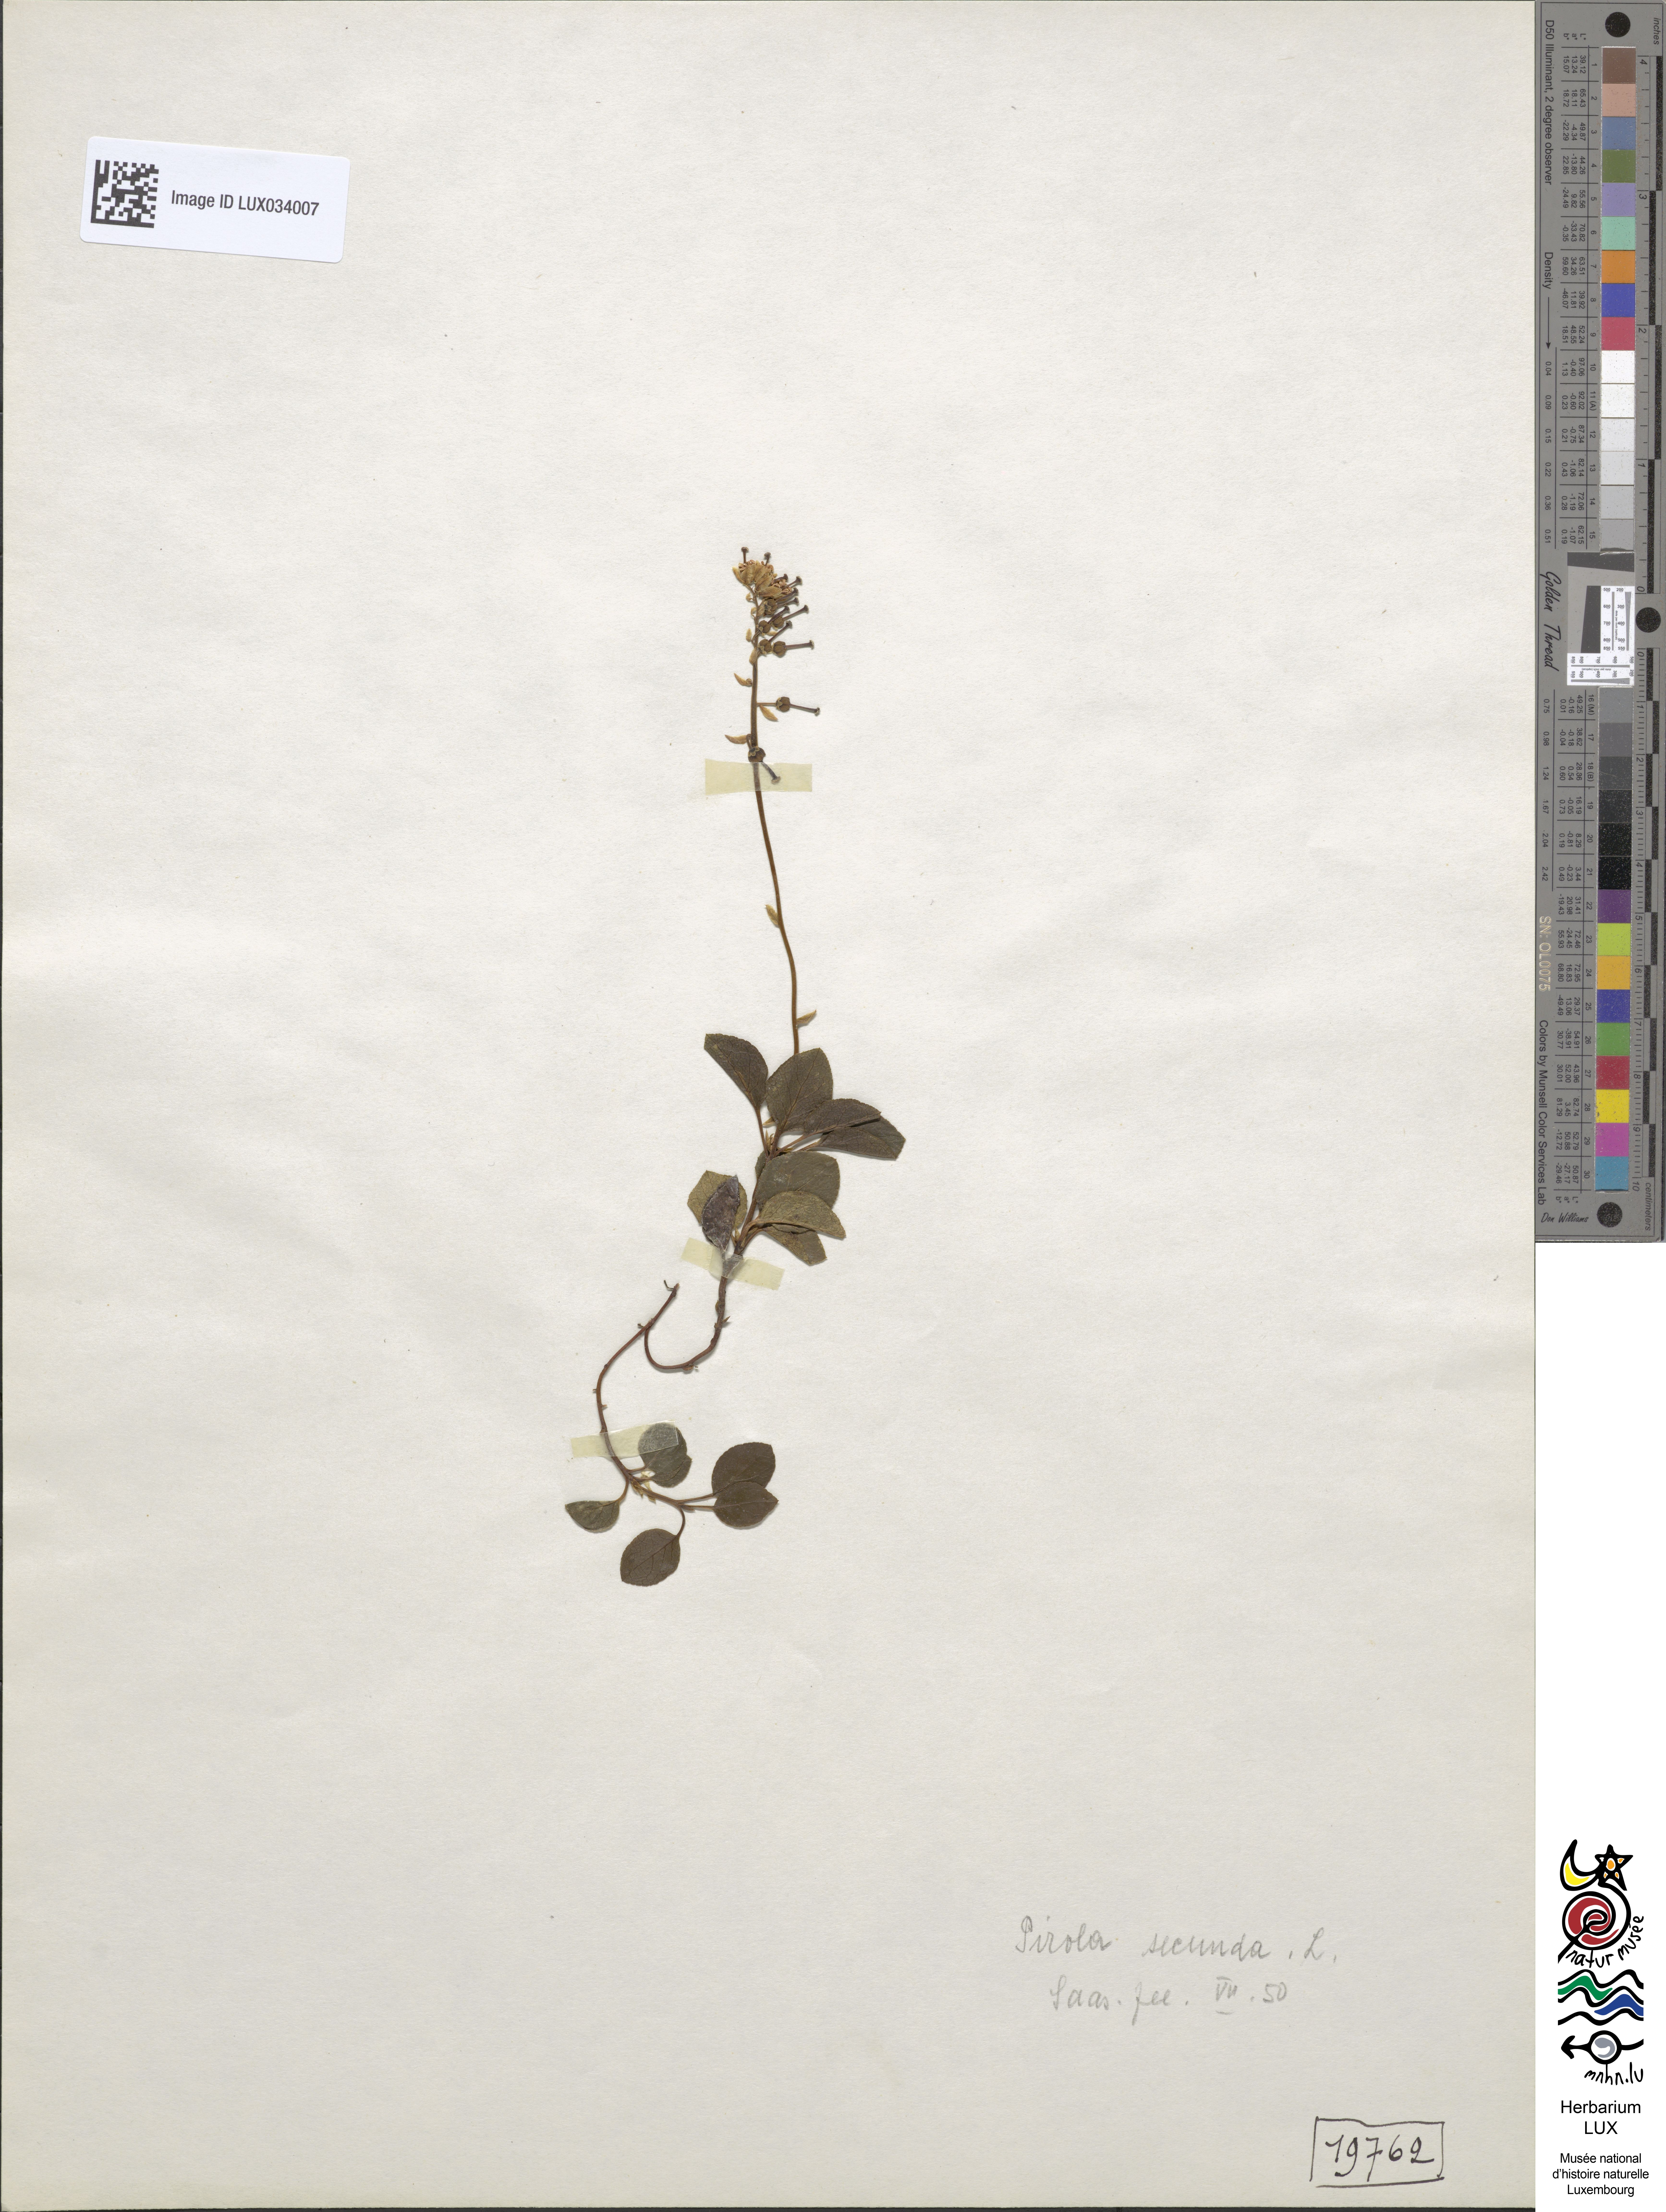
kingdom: Plantae
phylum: Tracheophyta
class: Magnoliopsida
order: Ericales
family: Ericaceae
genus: Orthilia
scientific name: Orthilia secunda
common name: One-sided orthilia
